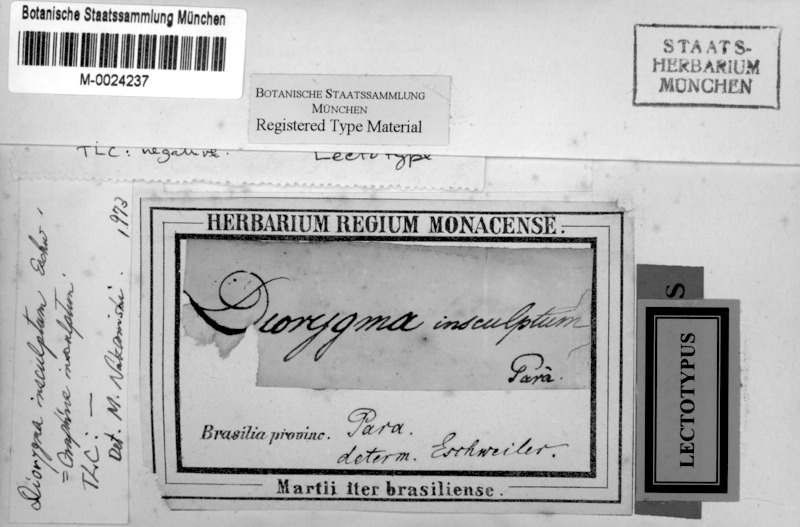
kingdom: Fungi
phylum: Ascomycota
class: Lecanoromycetes
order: Ostropales
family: Graphidaceae
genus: Graphina
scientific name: Graphina insculpta
